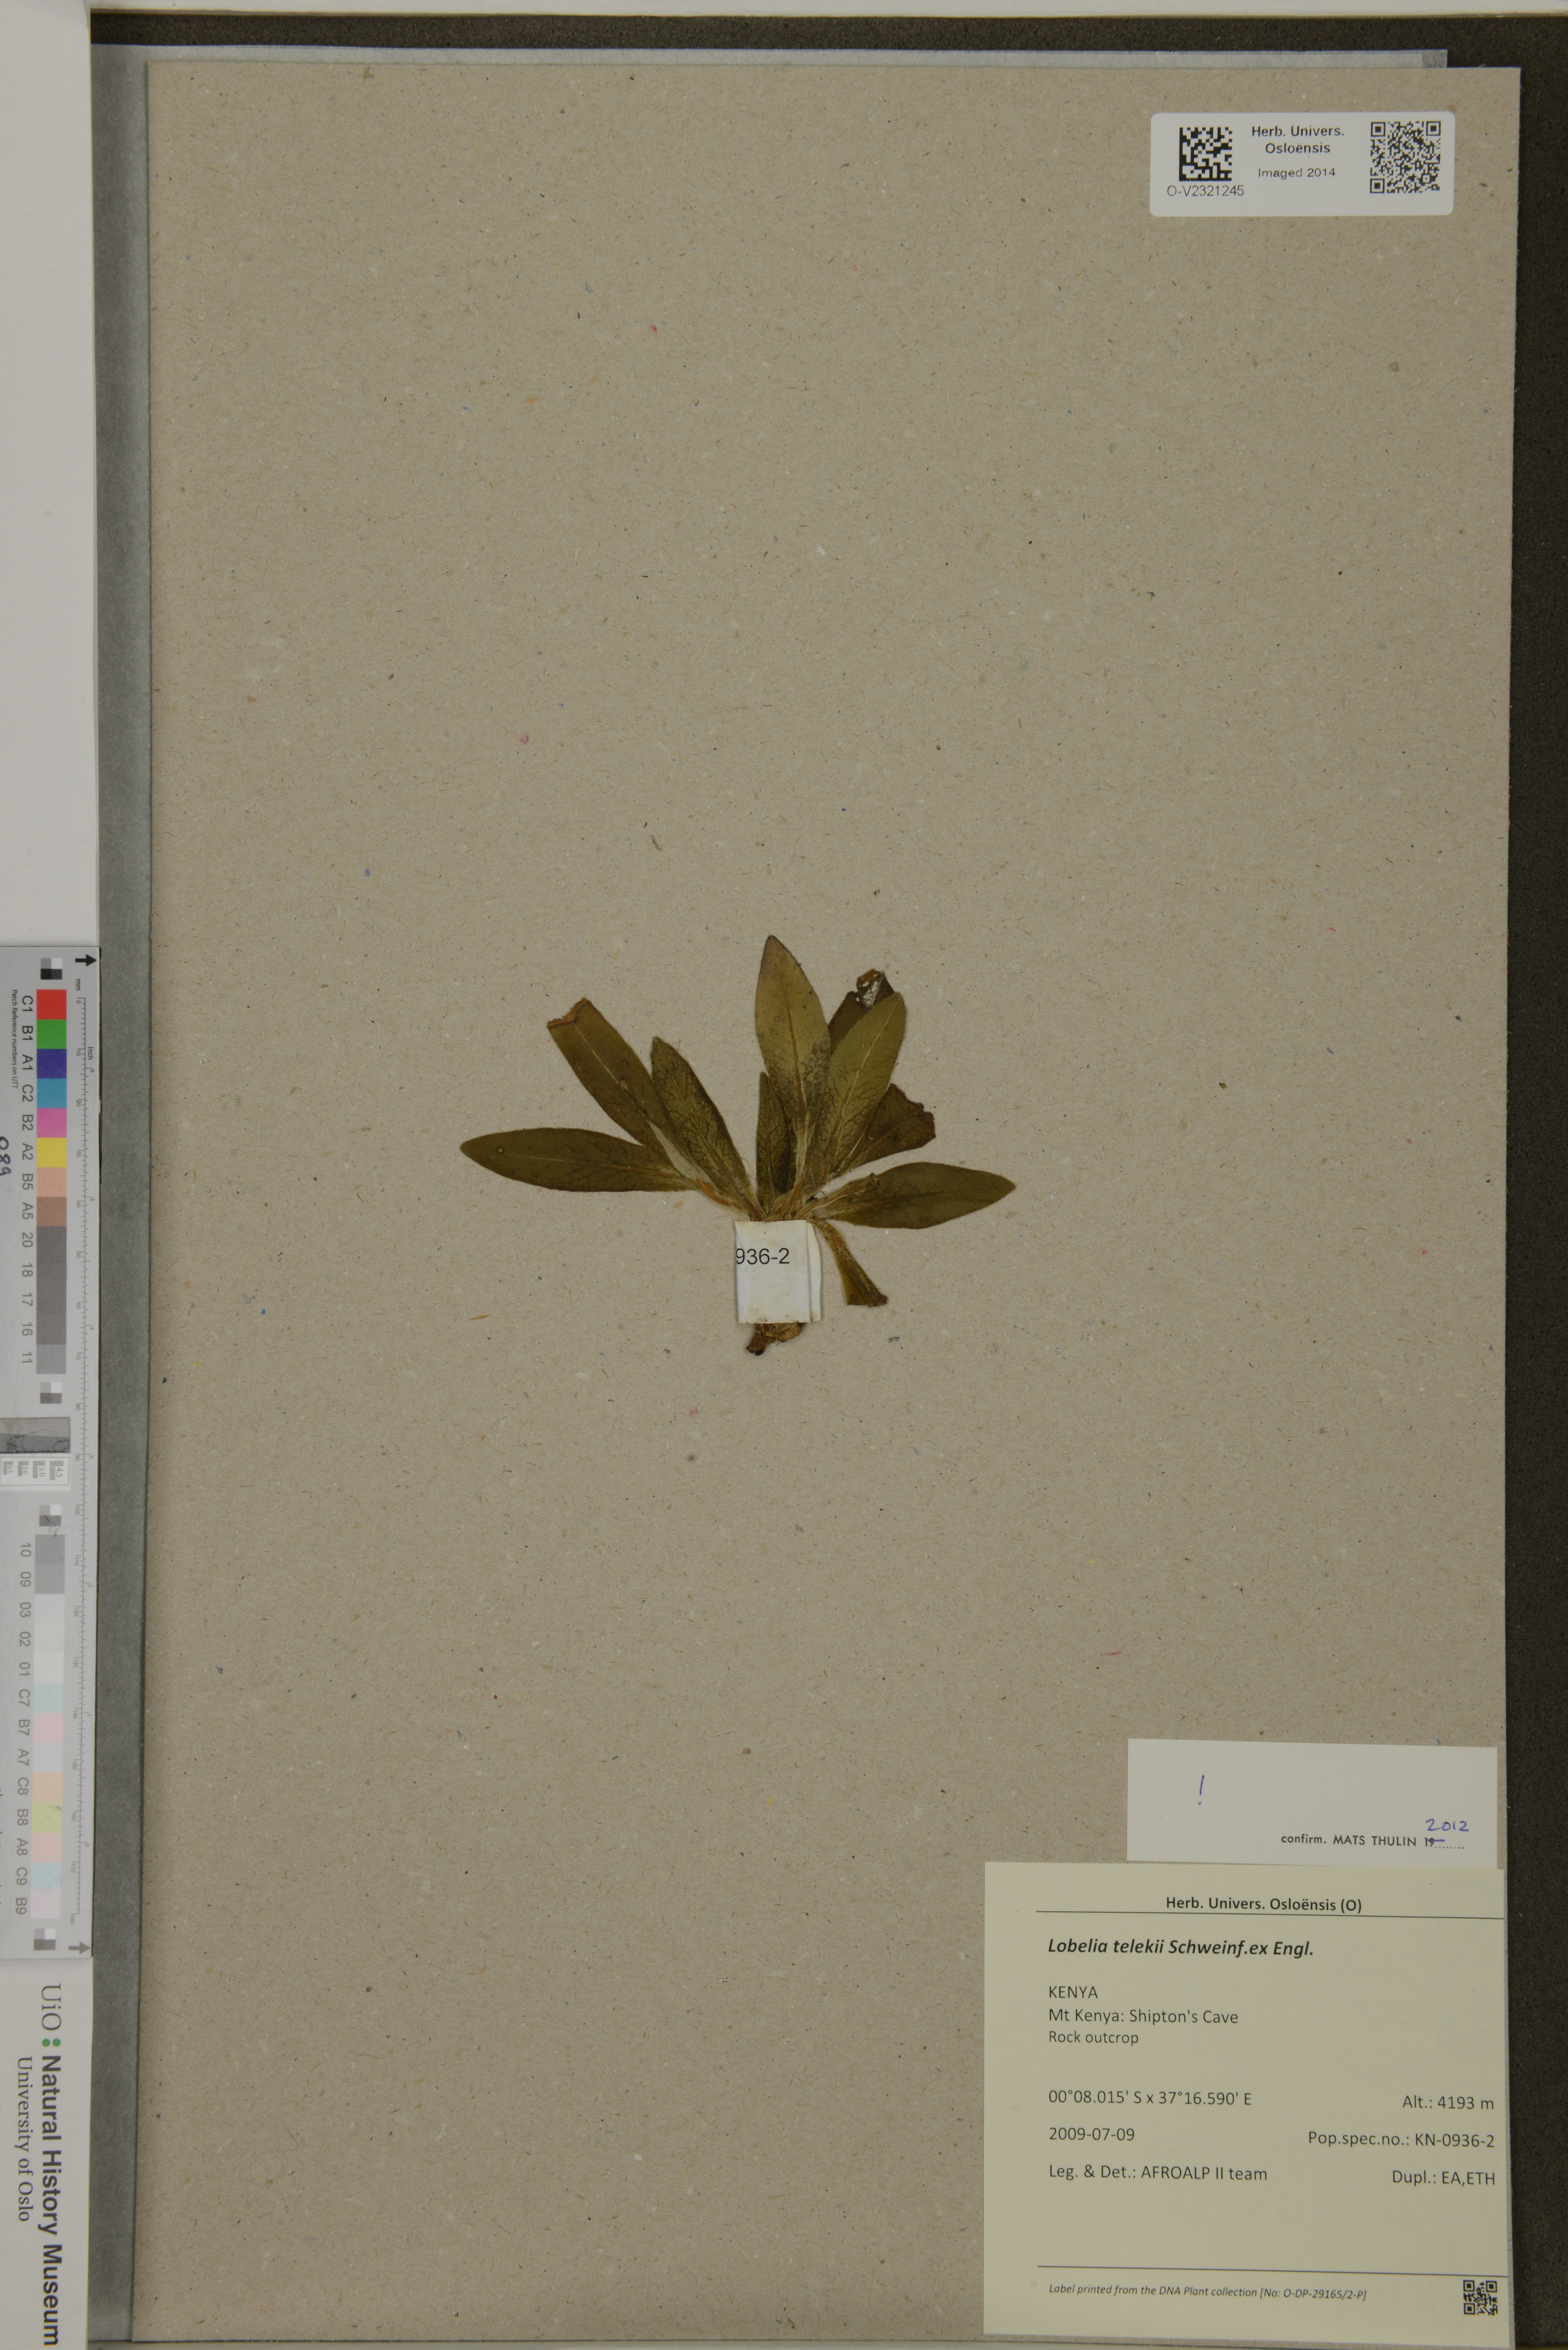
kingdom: Plantae
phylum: Tracheophyta
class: Magnoliopsida
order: Asterales
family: Campanulaceae
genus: Lobelia
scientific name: Lobelia telekii
